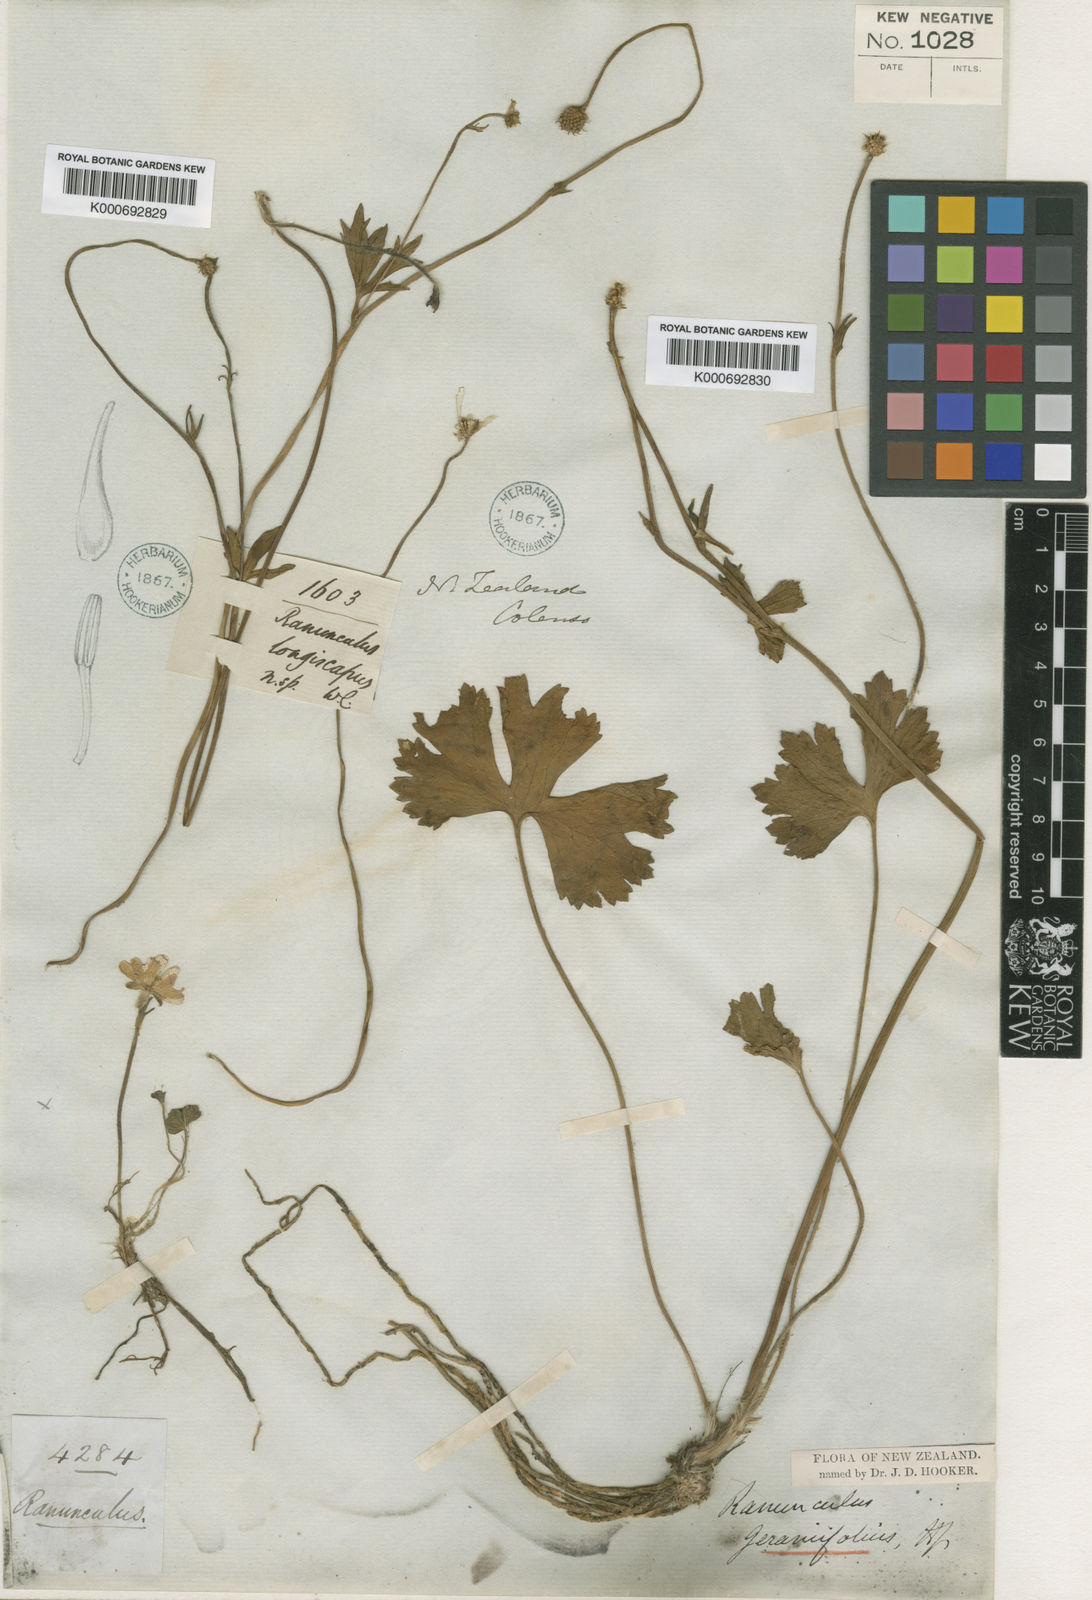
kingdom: Plantae
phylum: Tracheophyta
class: Magnoliopsida
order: Ranunculales
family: Ranunculaceae
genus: Ranunculus
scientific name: Ranunculus verticillatus
